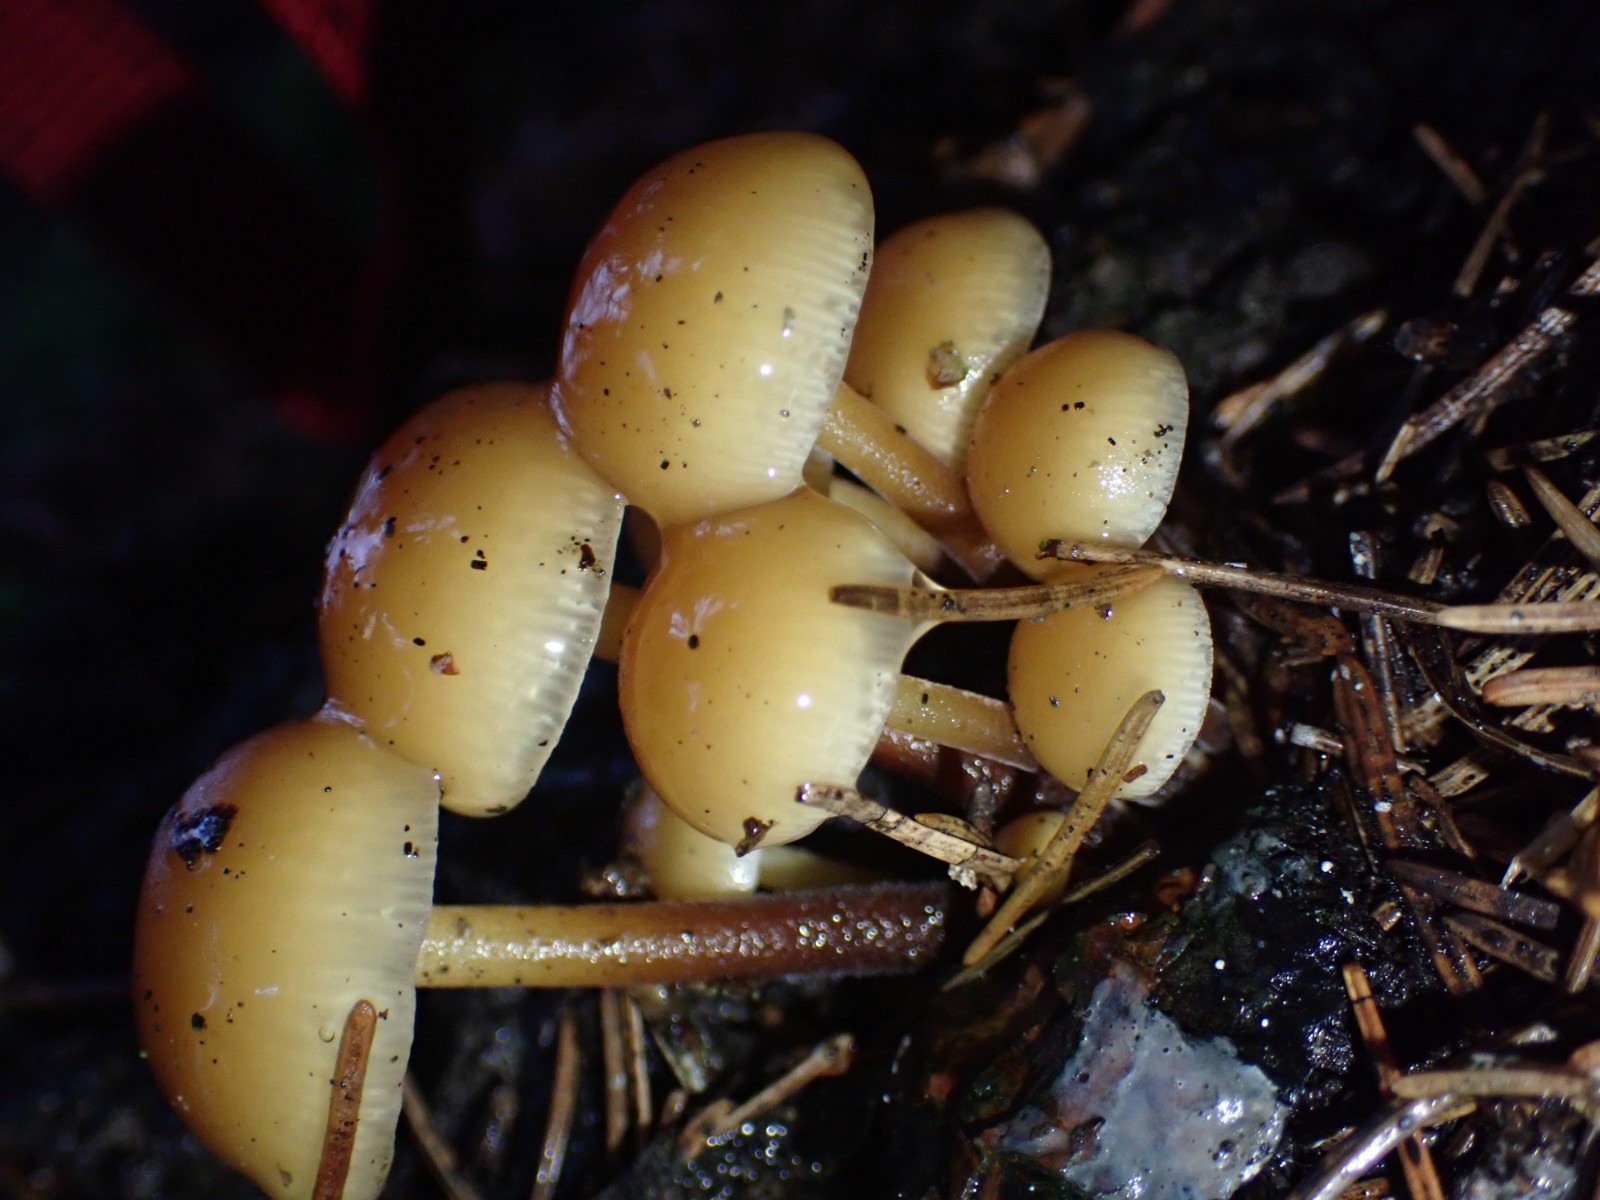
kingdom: Fungi
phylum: Basidiomycota
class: Agaricomycetes
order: Agaricales
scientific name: Agaricales
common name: champignonordenen
